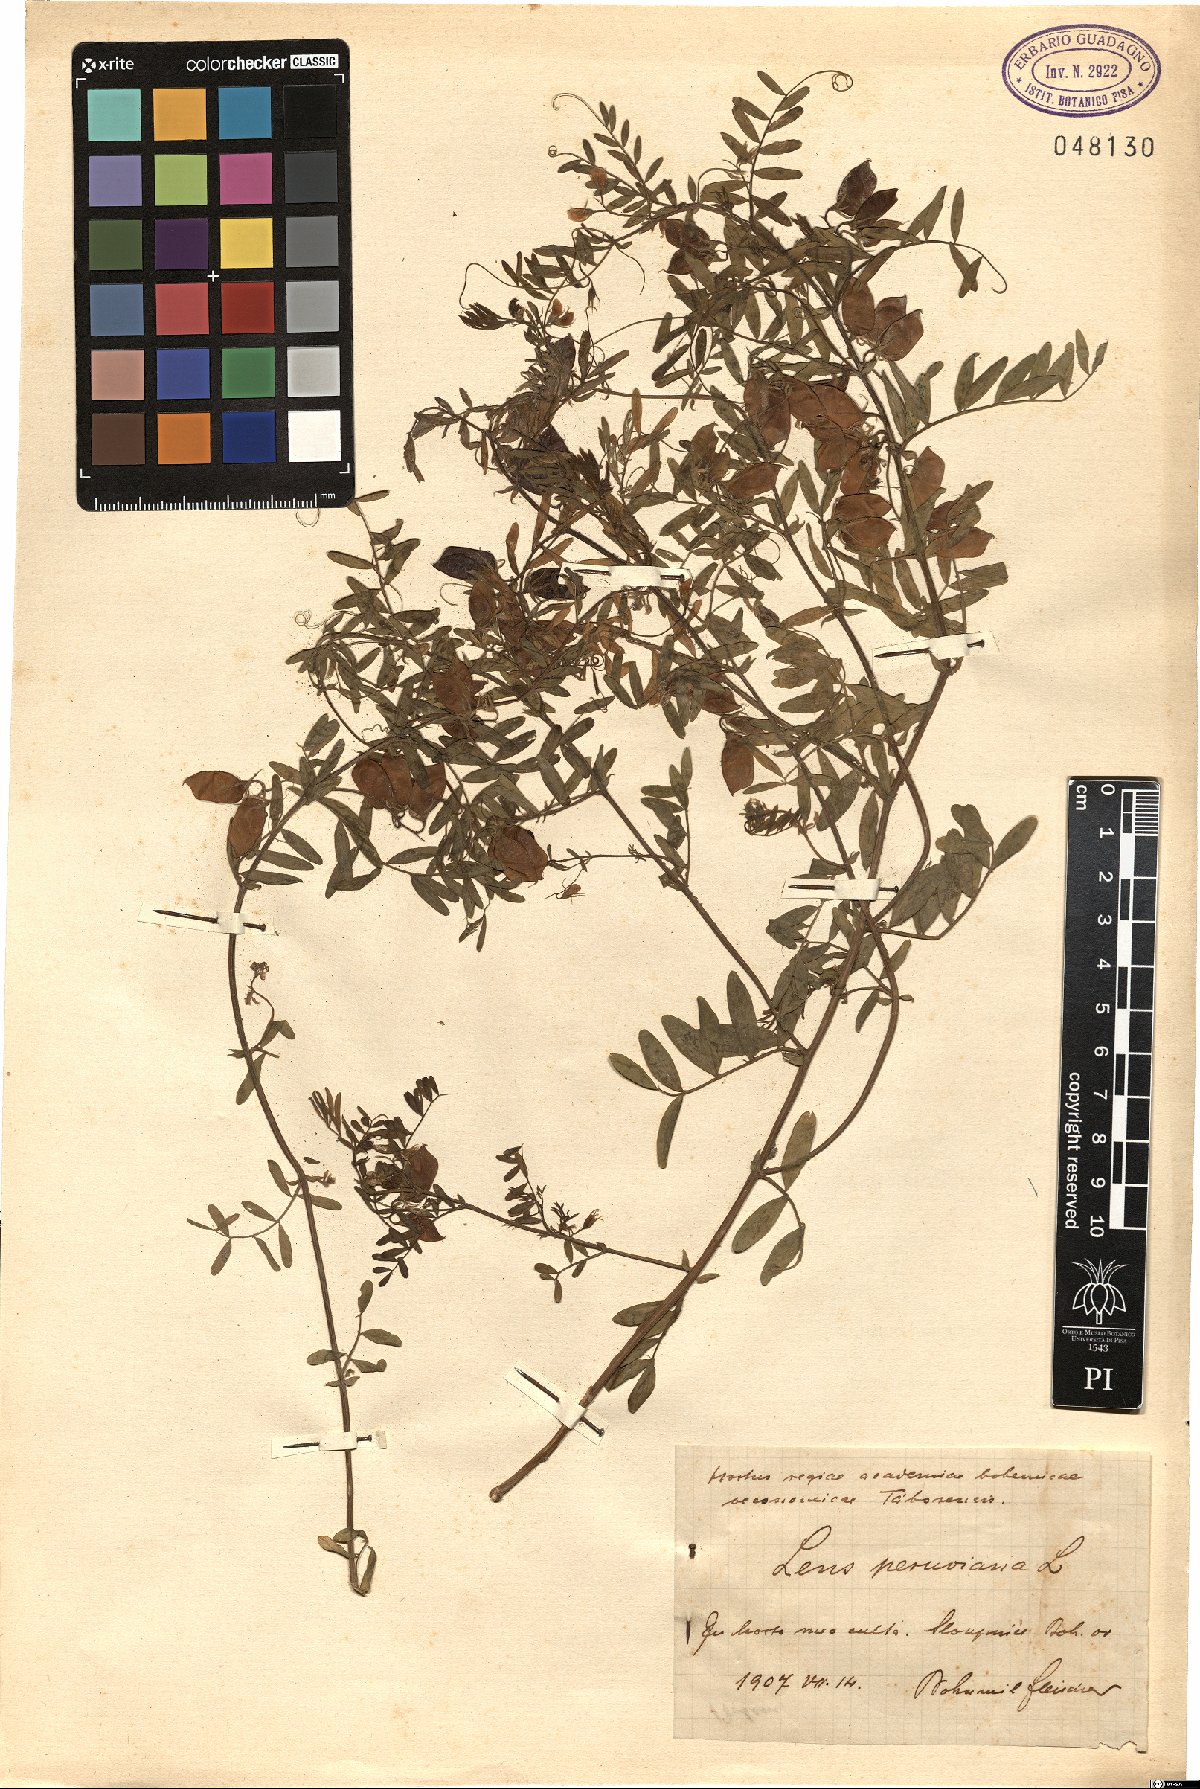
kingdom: Plantae
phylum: Tracheophyta
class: Magnoliopsida
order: Fabales
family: Fabaceae
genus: Lens
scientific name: Lens
